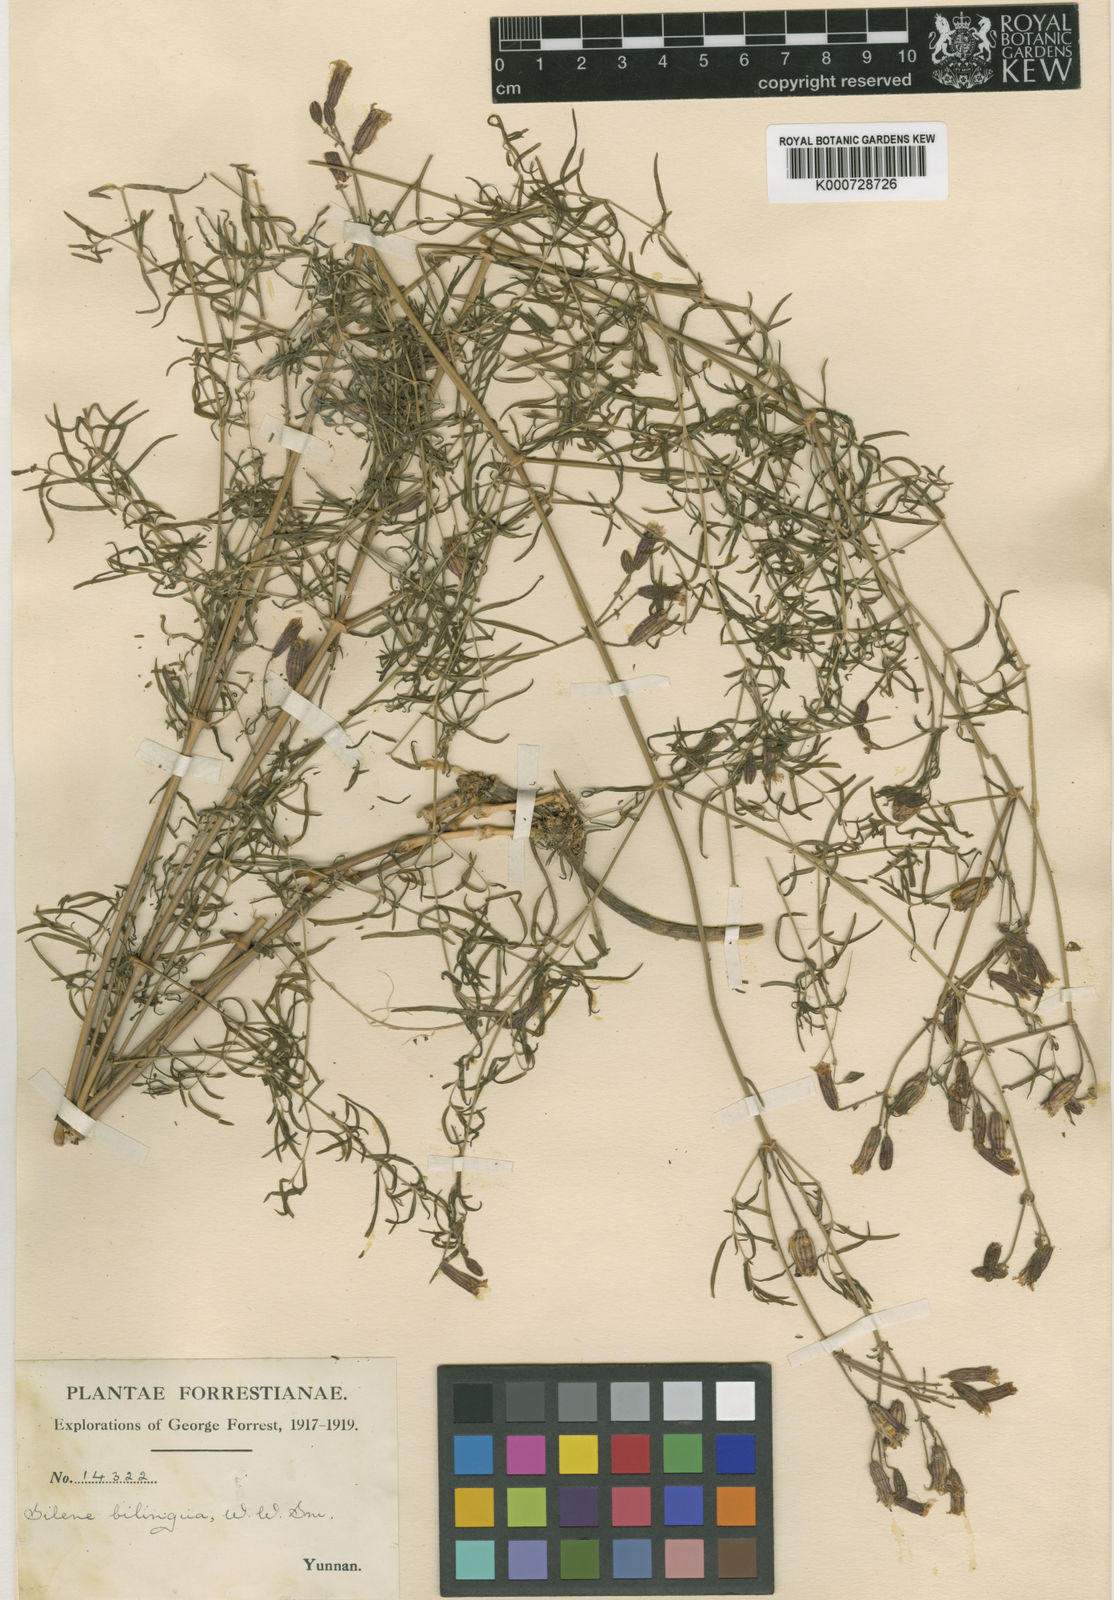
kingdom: Plantae
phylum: Tracheophyta
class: Magnoliopsida
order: Caryophyllales
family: Caryophyllaceae
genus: Silene
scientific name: Silene bilingua
